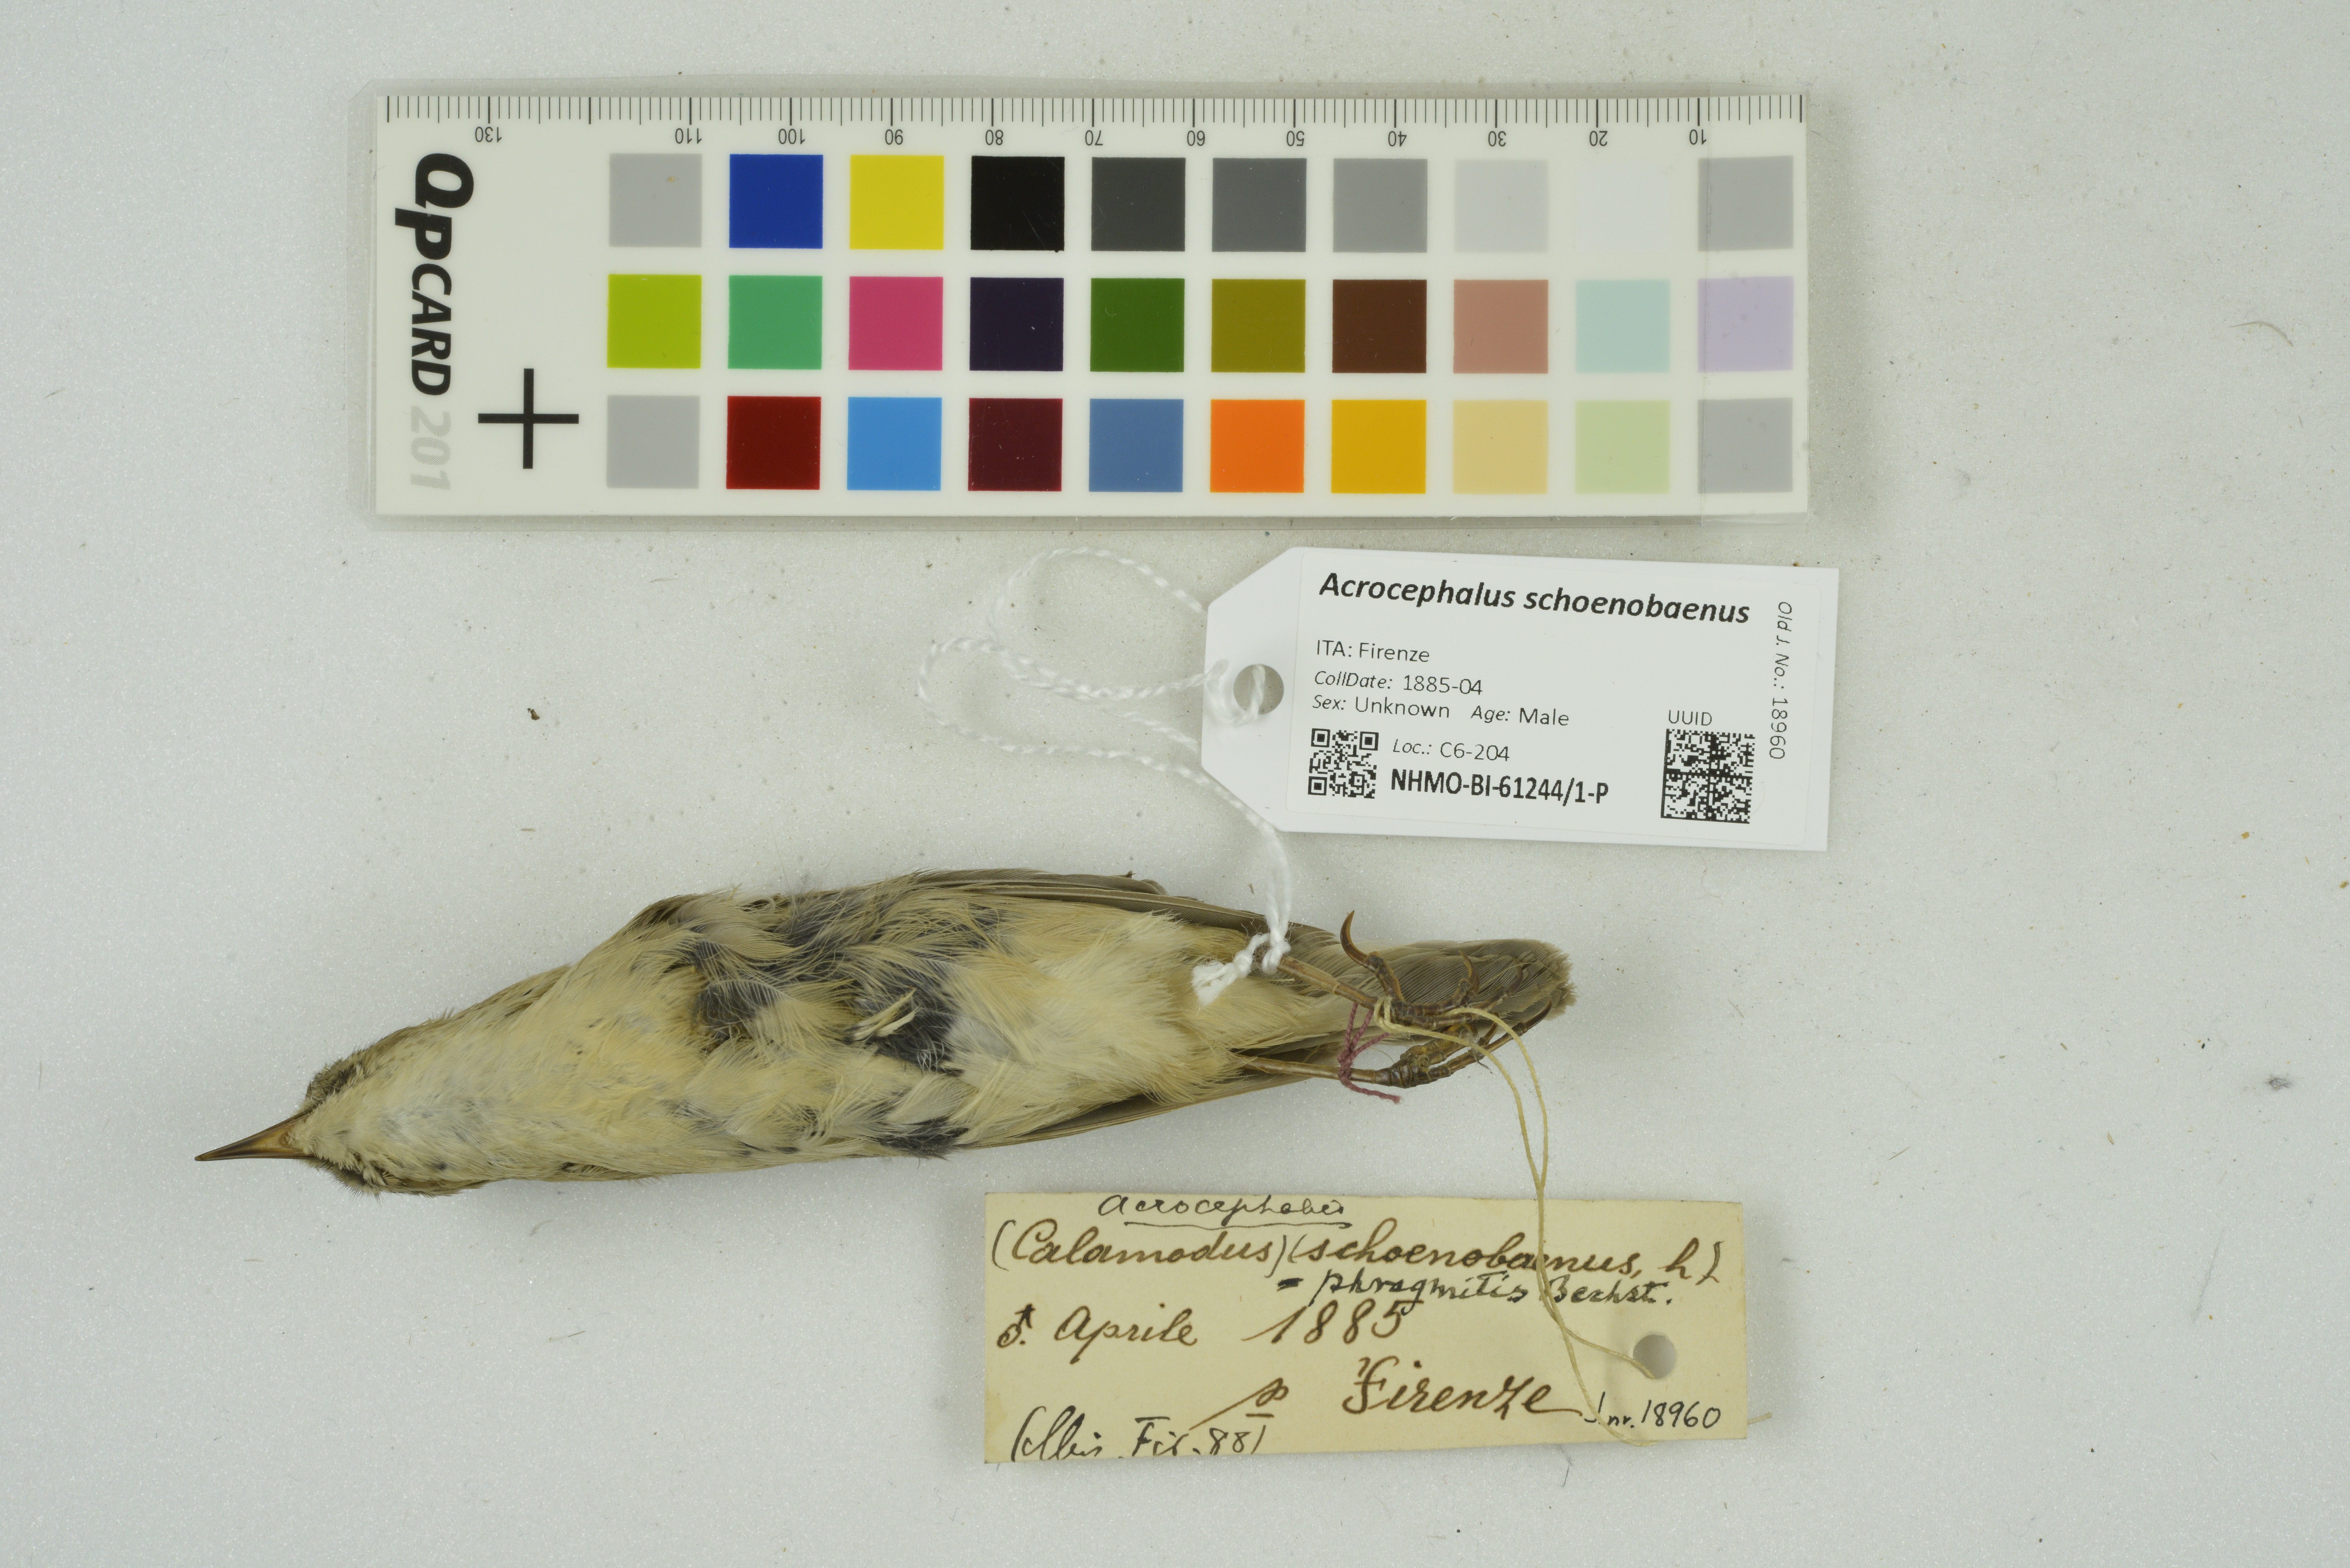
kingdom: Animalia
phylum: Chordata
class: Aves
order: Passeriformes
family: Acrocephalidae
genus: Acrocephalus
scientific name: Acrocephalus schoenobaenus
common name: Sedge warbler
